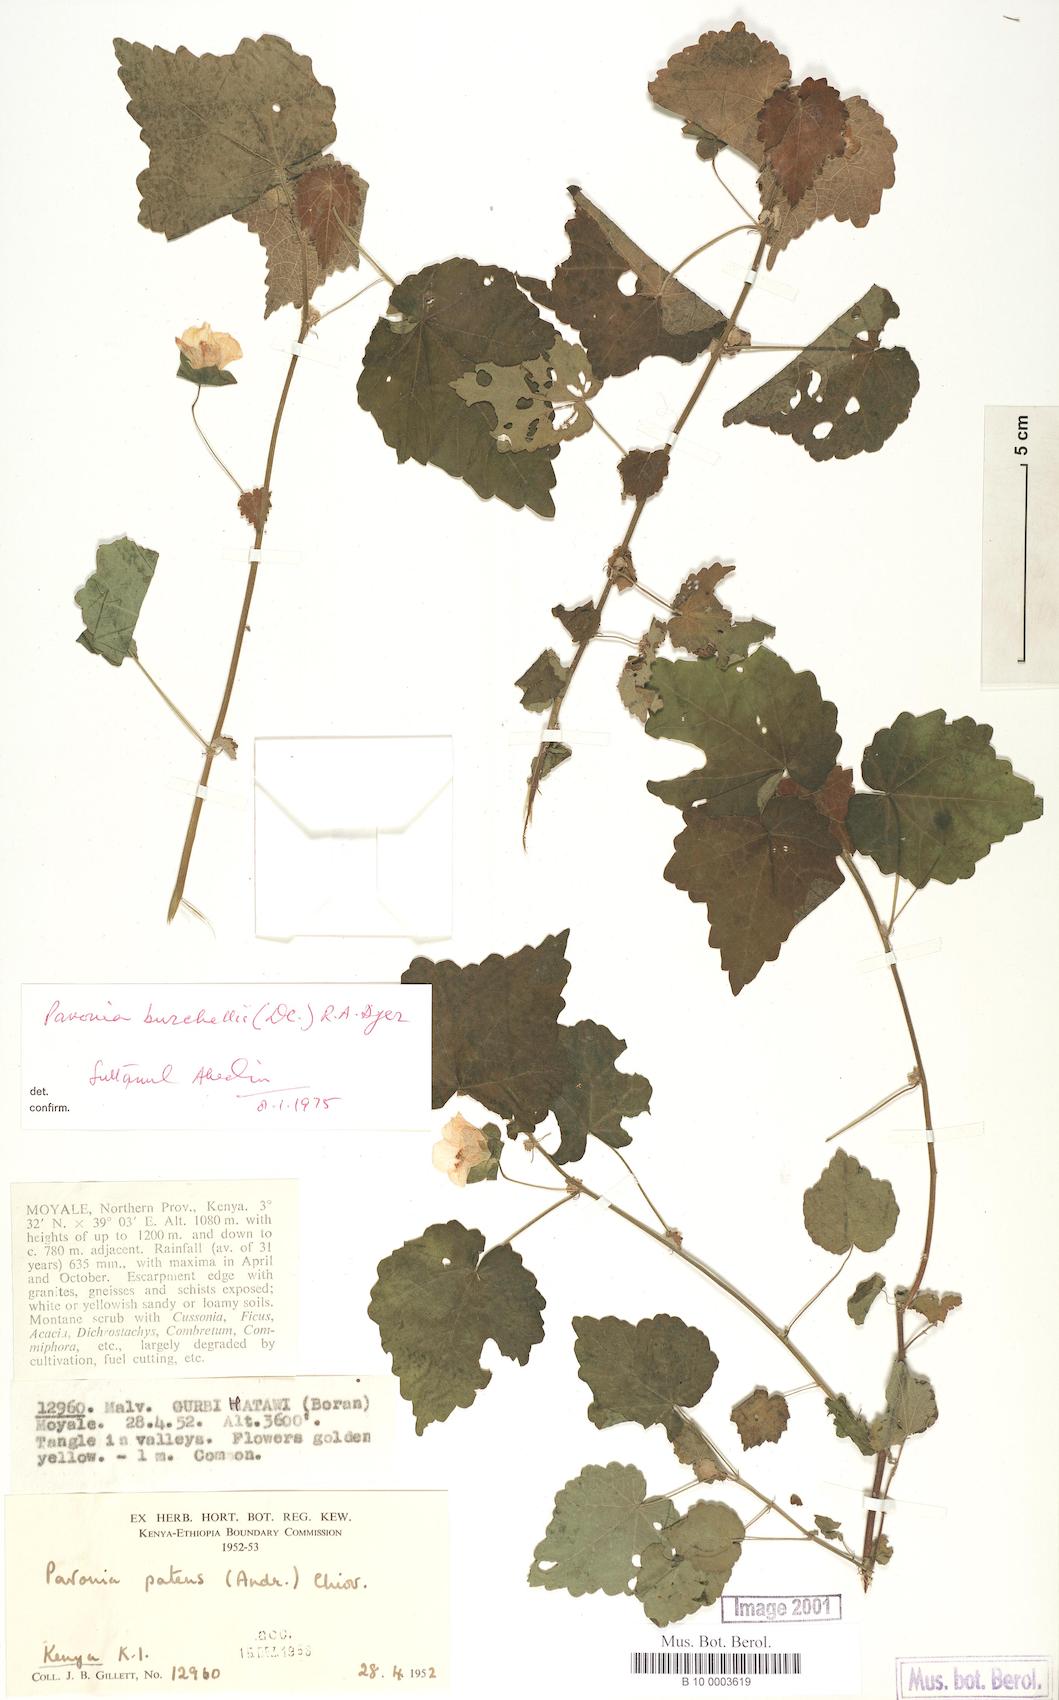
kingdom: Plantae
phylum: Tracheophyta
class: Magnoliopsida
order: Malvales
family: Malvaceae
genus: Pavonia
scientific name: Pavonia burchellii
